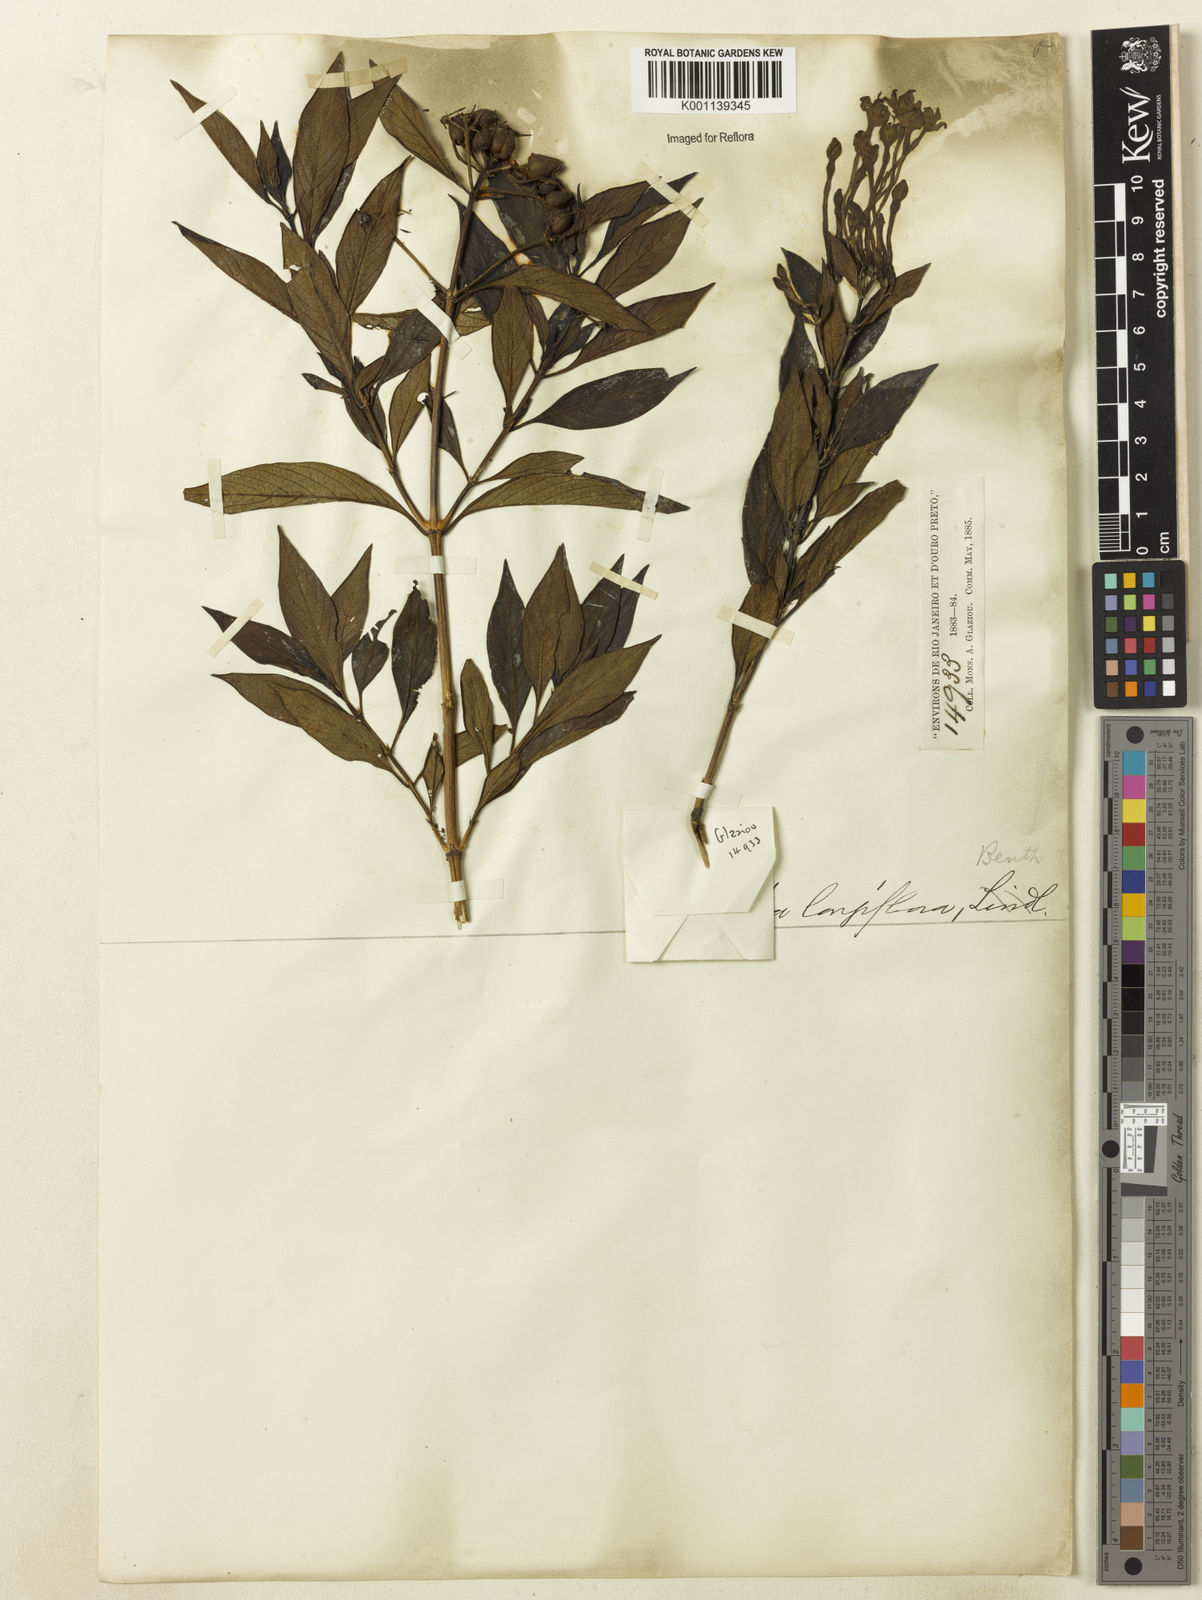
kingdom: Plantae
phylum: Tracheophyta
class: Magnoliopsida
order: Gentianales
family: Rubiaceae
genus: Hindsia
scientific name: Hindsia
